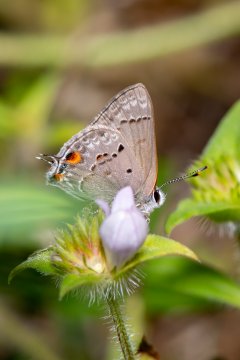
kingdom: Animalia
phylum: Arthropoda
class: Insecta
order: Lepidoptera
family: Lycaenidae
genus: Callicista
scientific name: Callicista columella
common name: Mallow Scrub-Hairstreak
